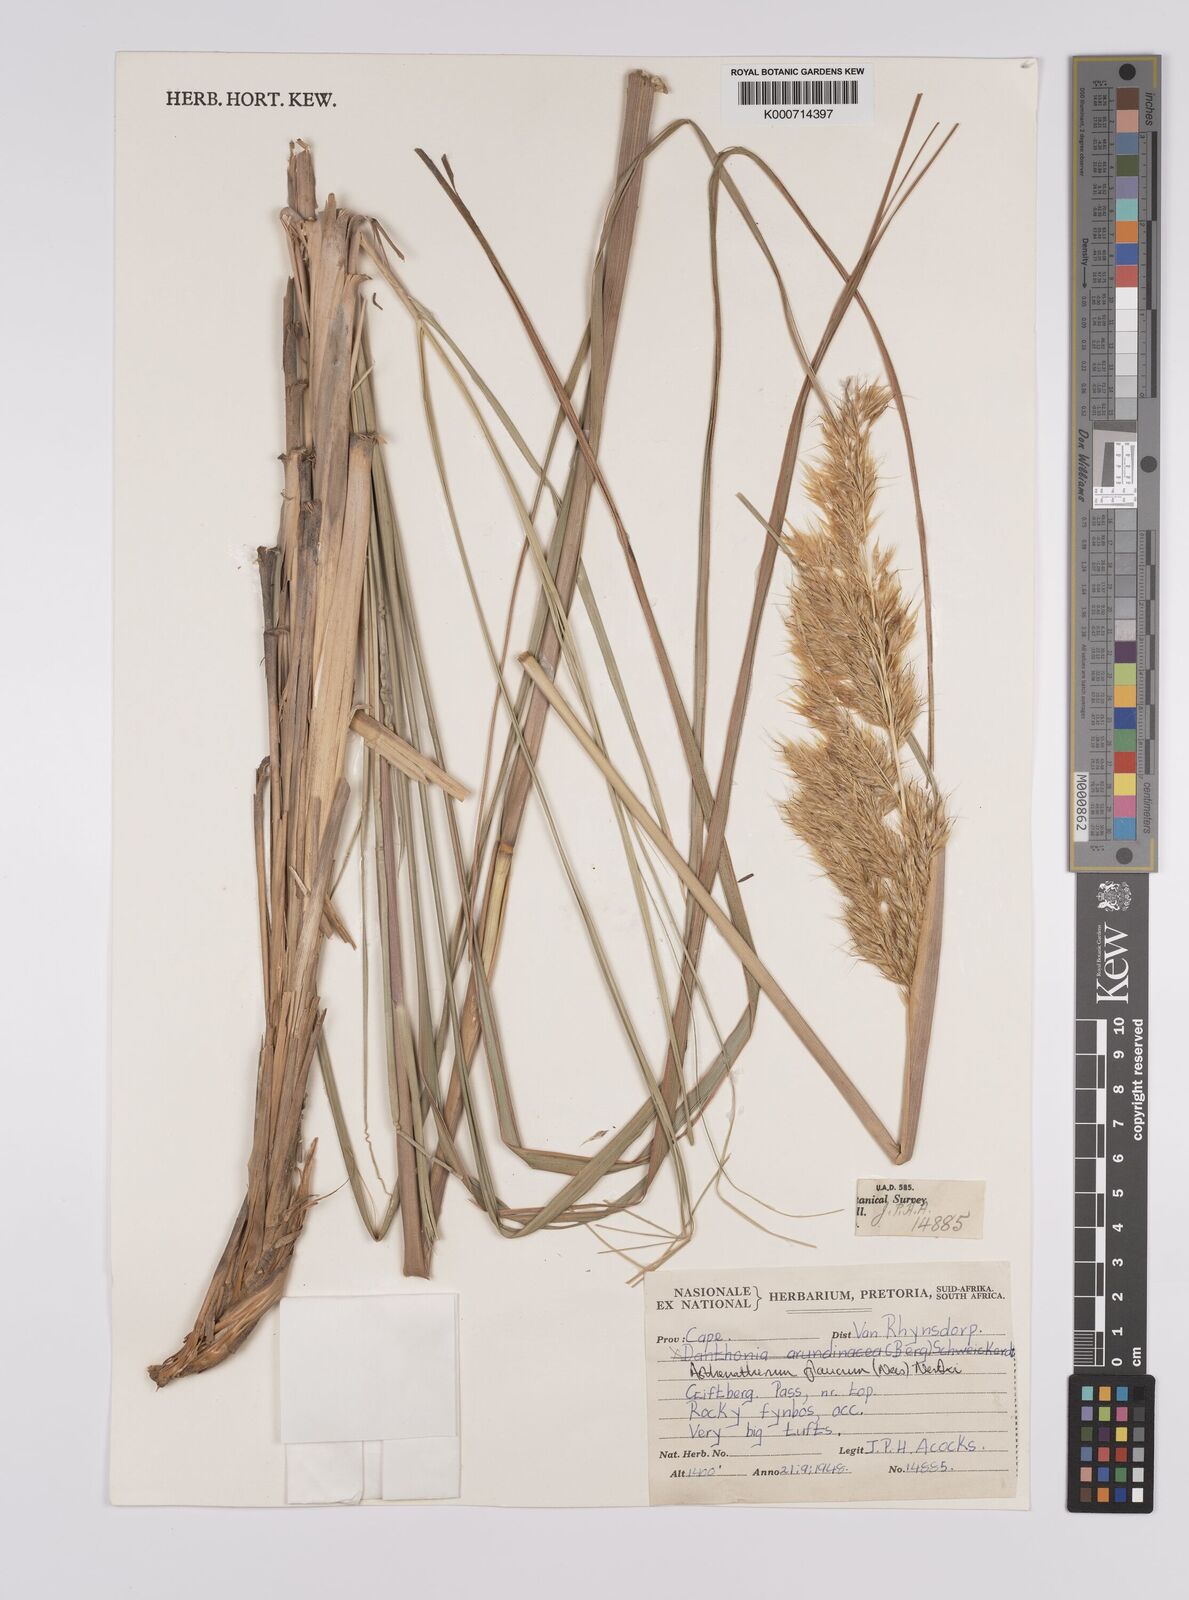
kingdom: Plantae
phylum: Tracheophyta
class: Liliopsida
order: Poales
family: Poaceae
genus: Rytidosperma
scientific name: Rytidosperma
